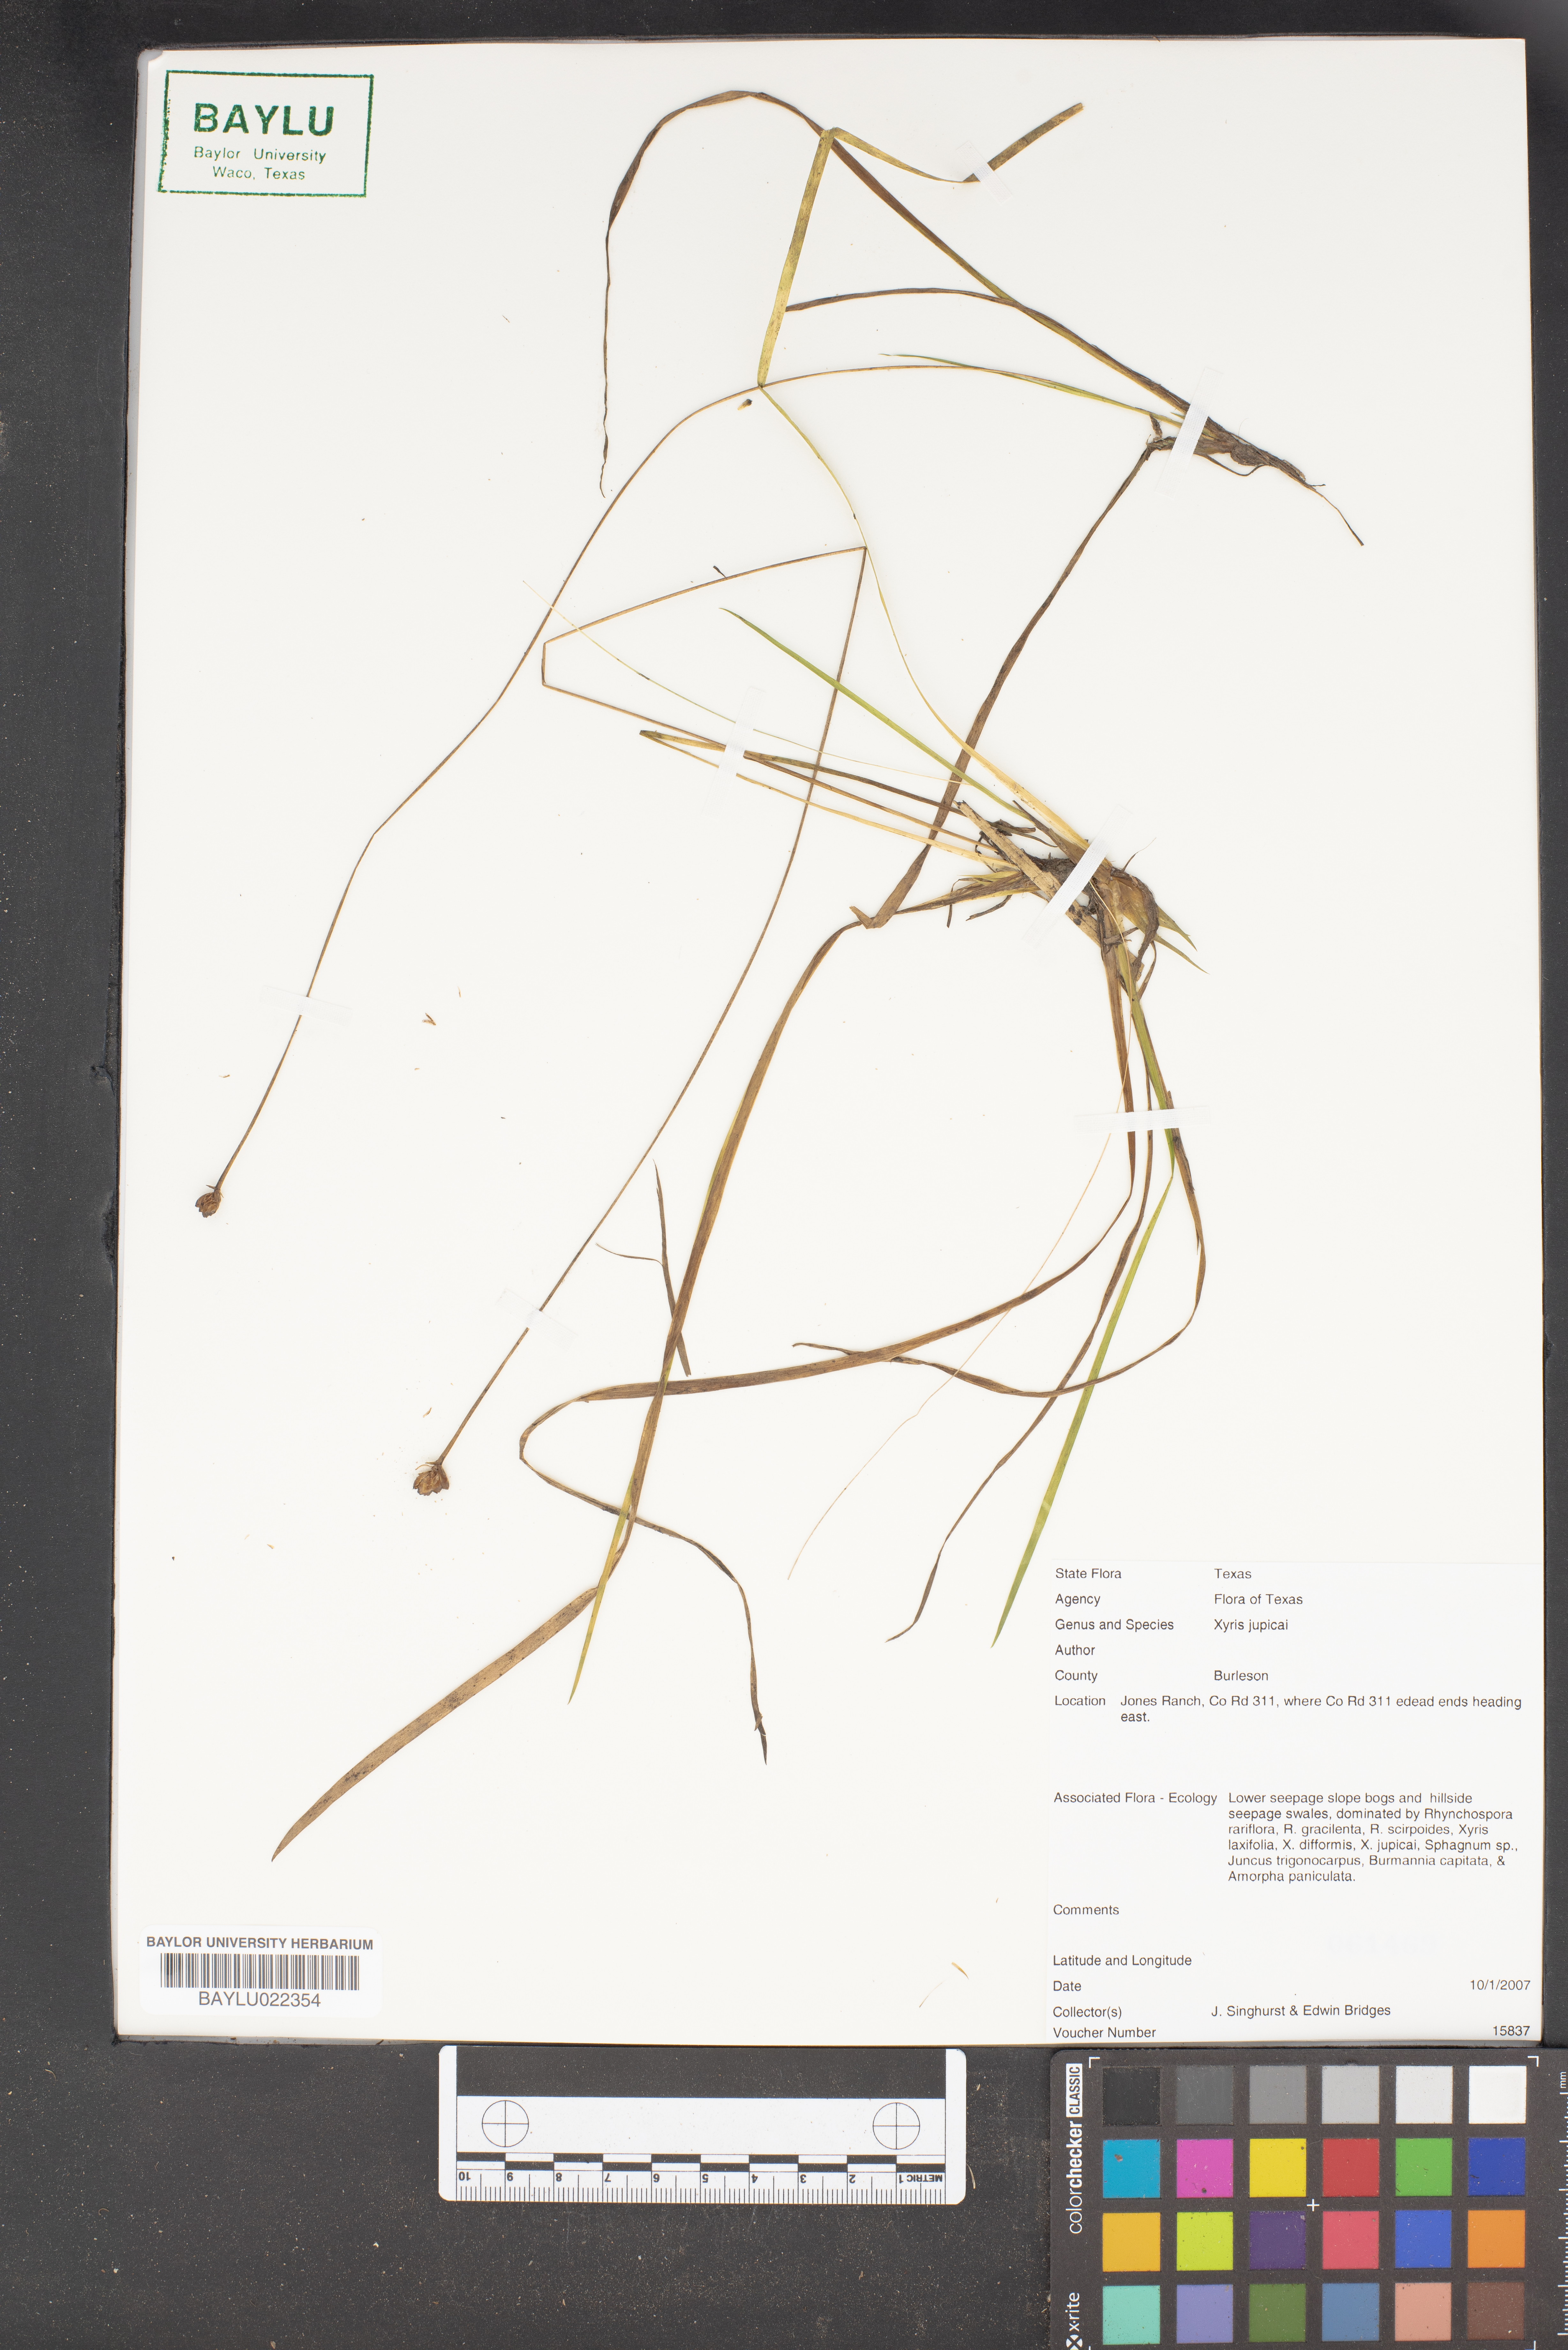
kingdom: Plantae
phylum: Tracheophyta
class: Liliopsida
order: Poales
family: Xyridaceae
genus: Xyris
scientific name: Xyris jupicai
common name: Richard's yelloweyed grass
